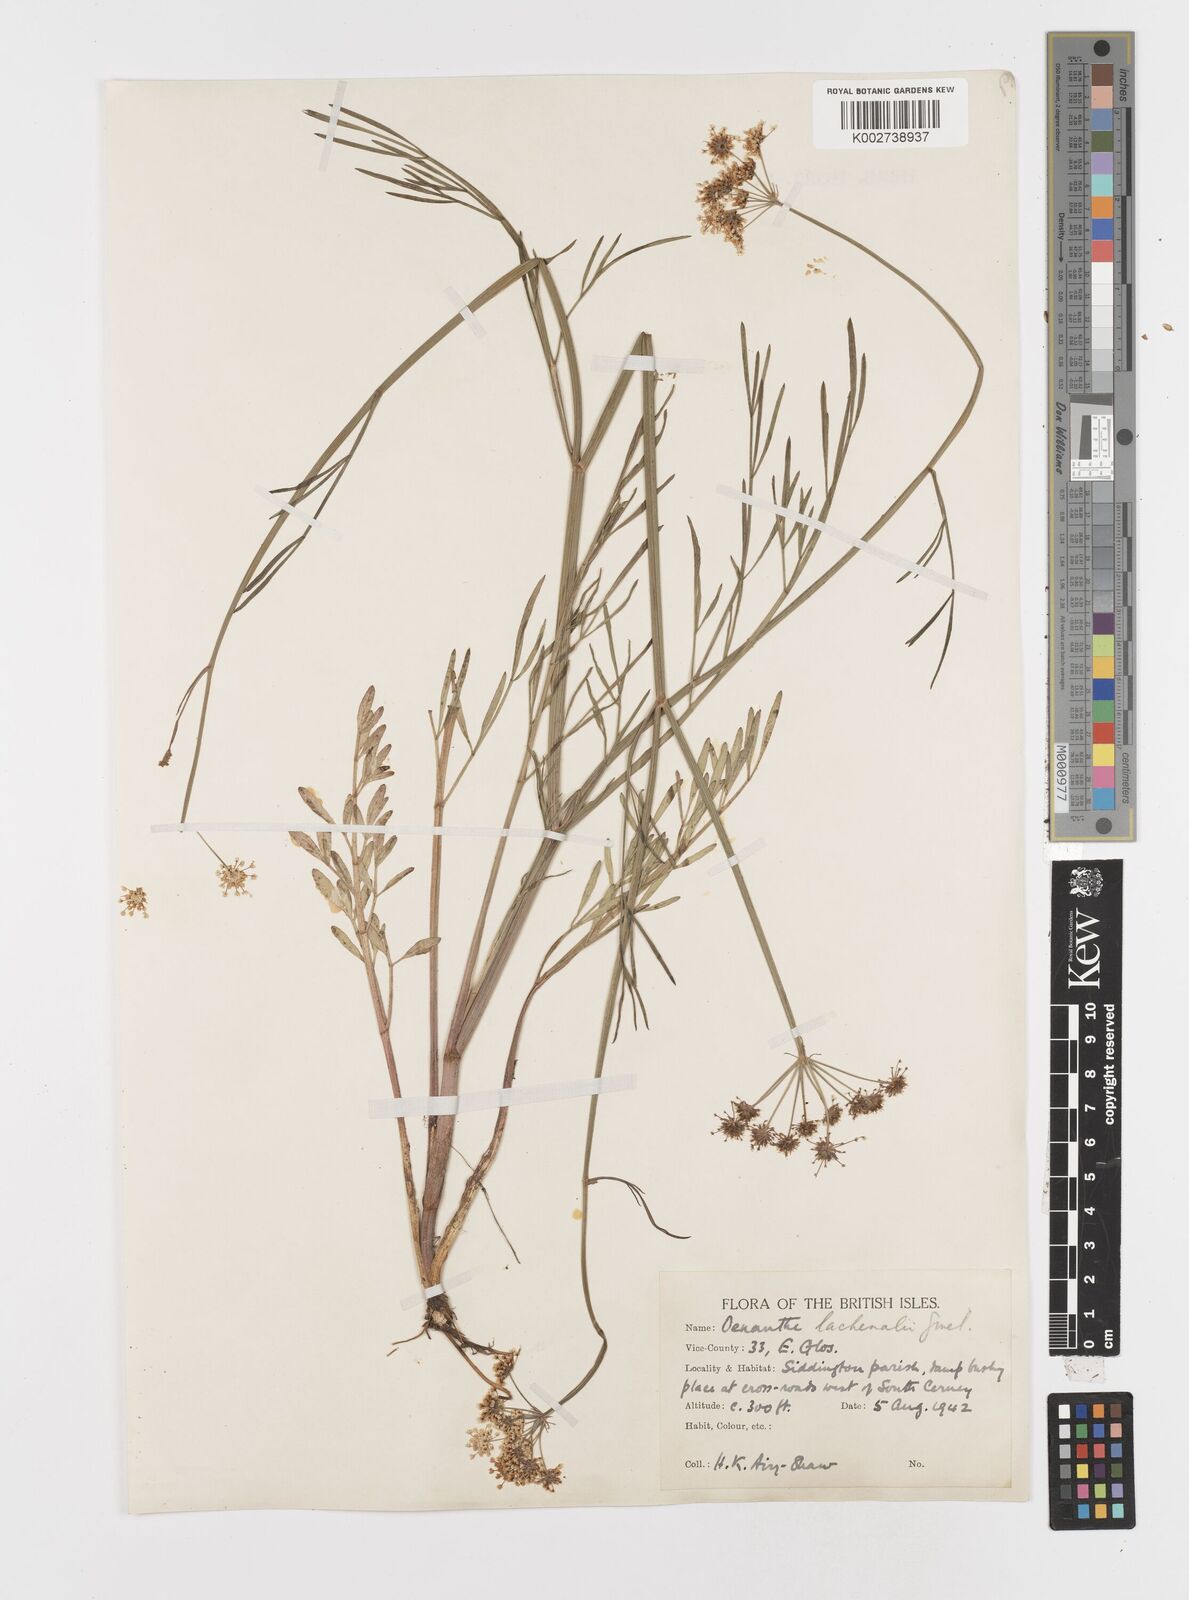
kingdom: Plantae
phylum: Tracheophyta
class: Magnoliopsida
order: Apiales
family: Apiaceae
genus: Oenanthe
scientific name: Oenanthe lachenalii
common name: Parsley water-dropwort
